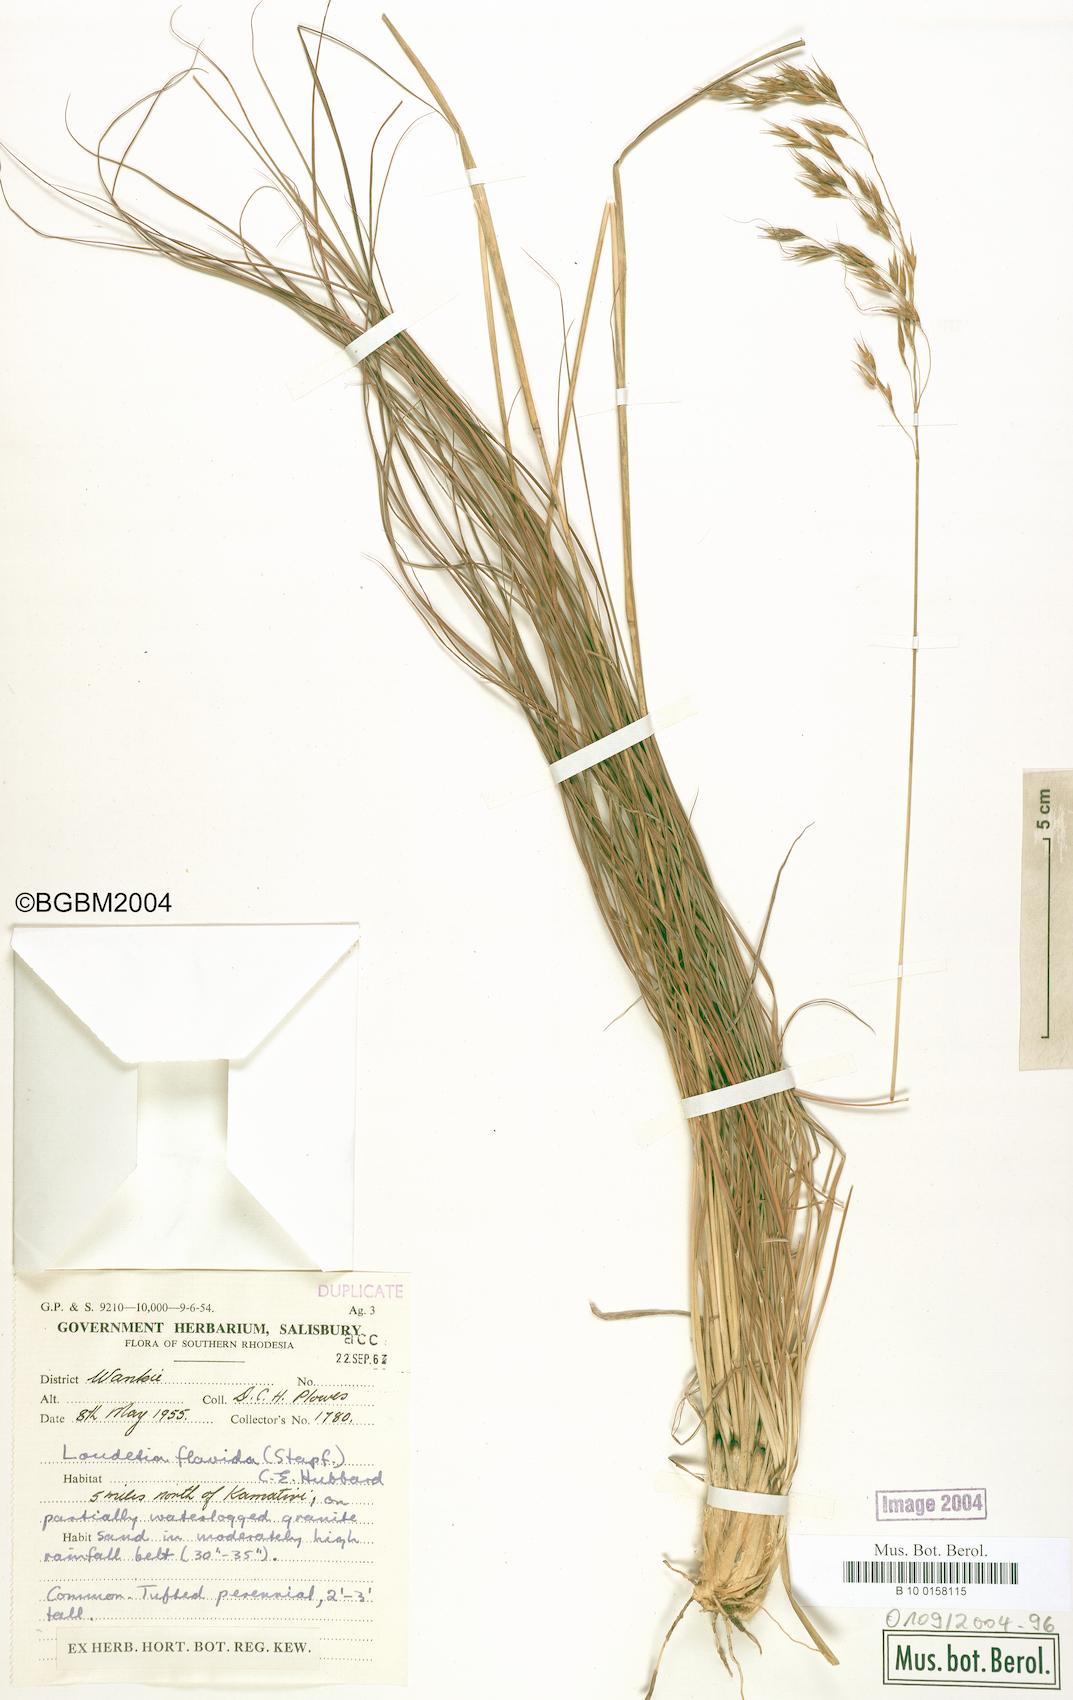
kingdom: Plantae
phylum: Tracheophyta
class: Liliopsida
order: Poales
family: Poaceae
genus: Loudetia
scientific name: Loudetia flavida
